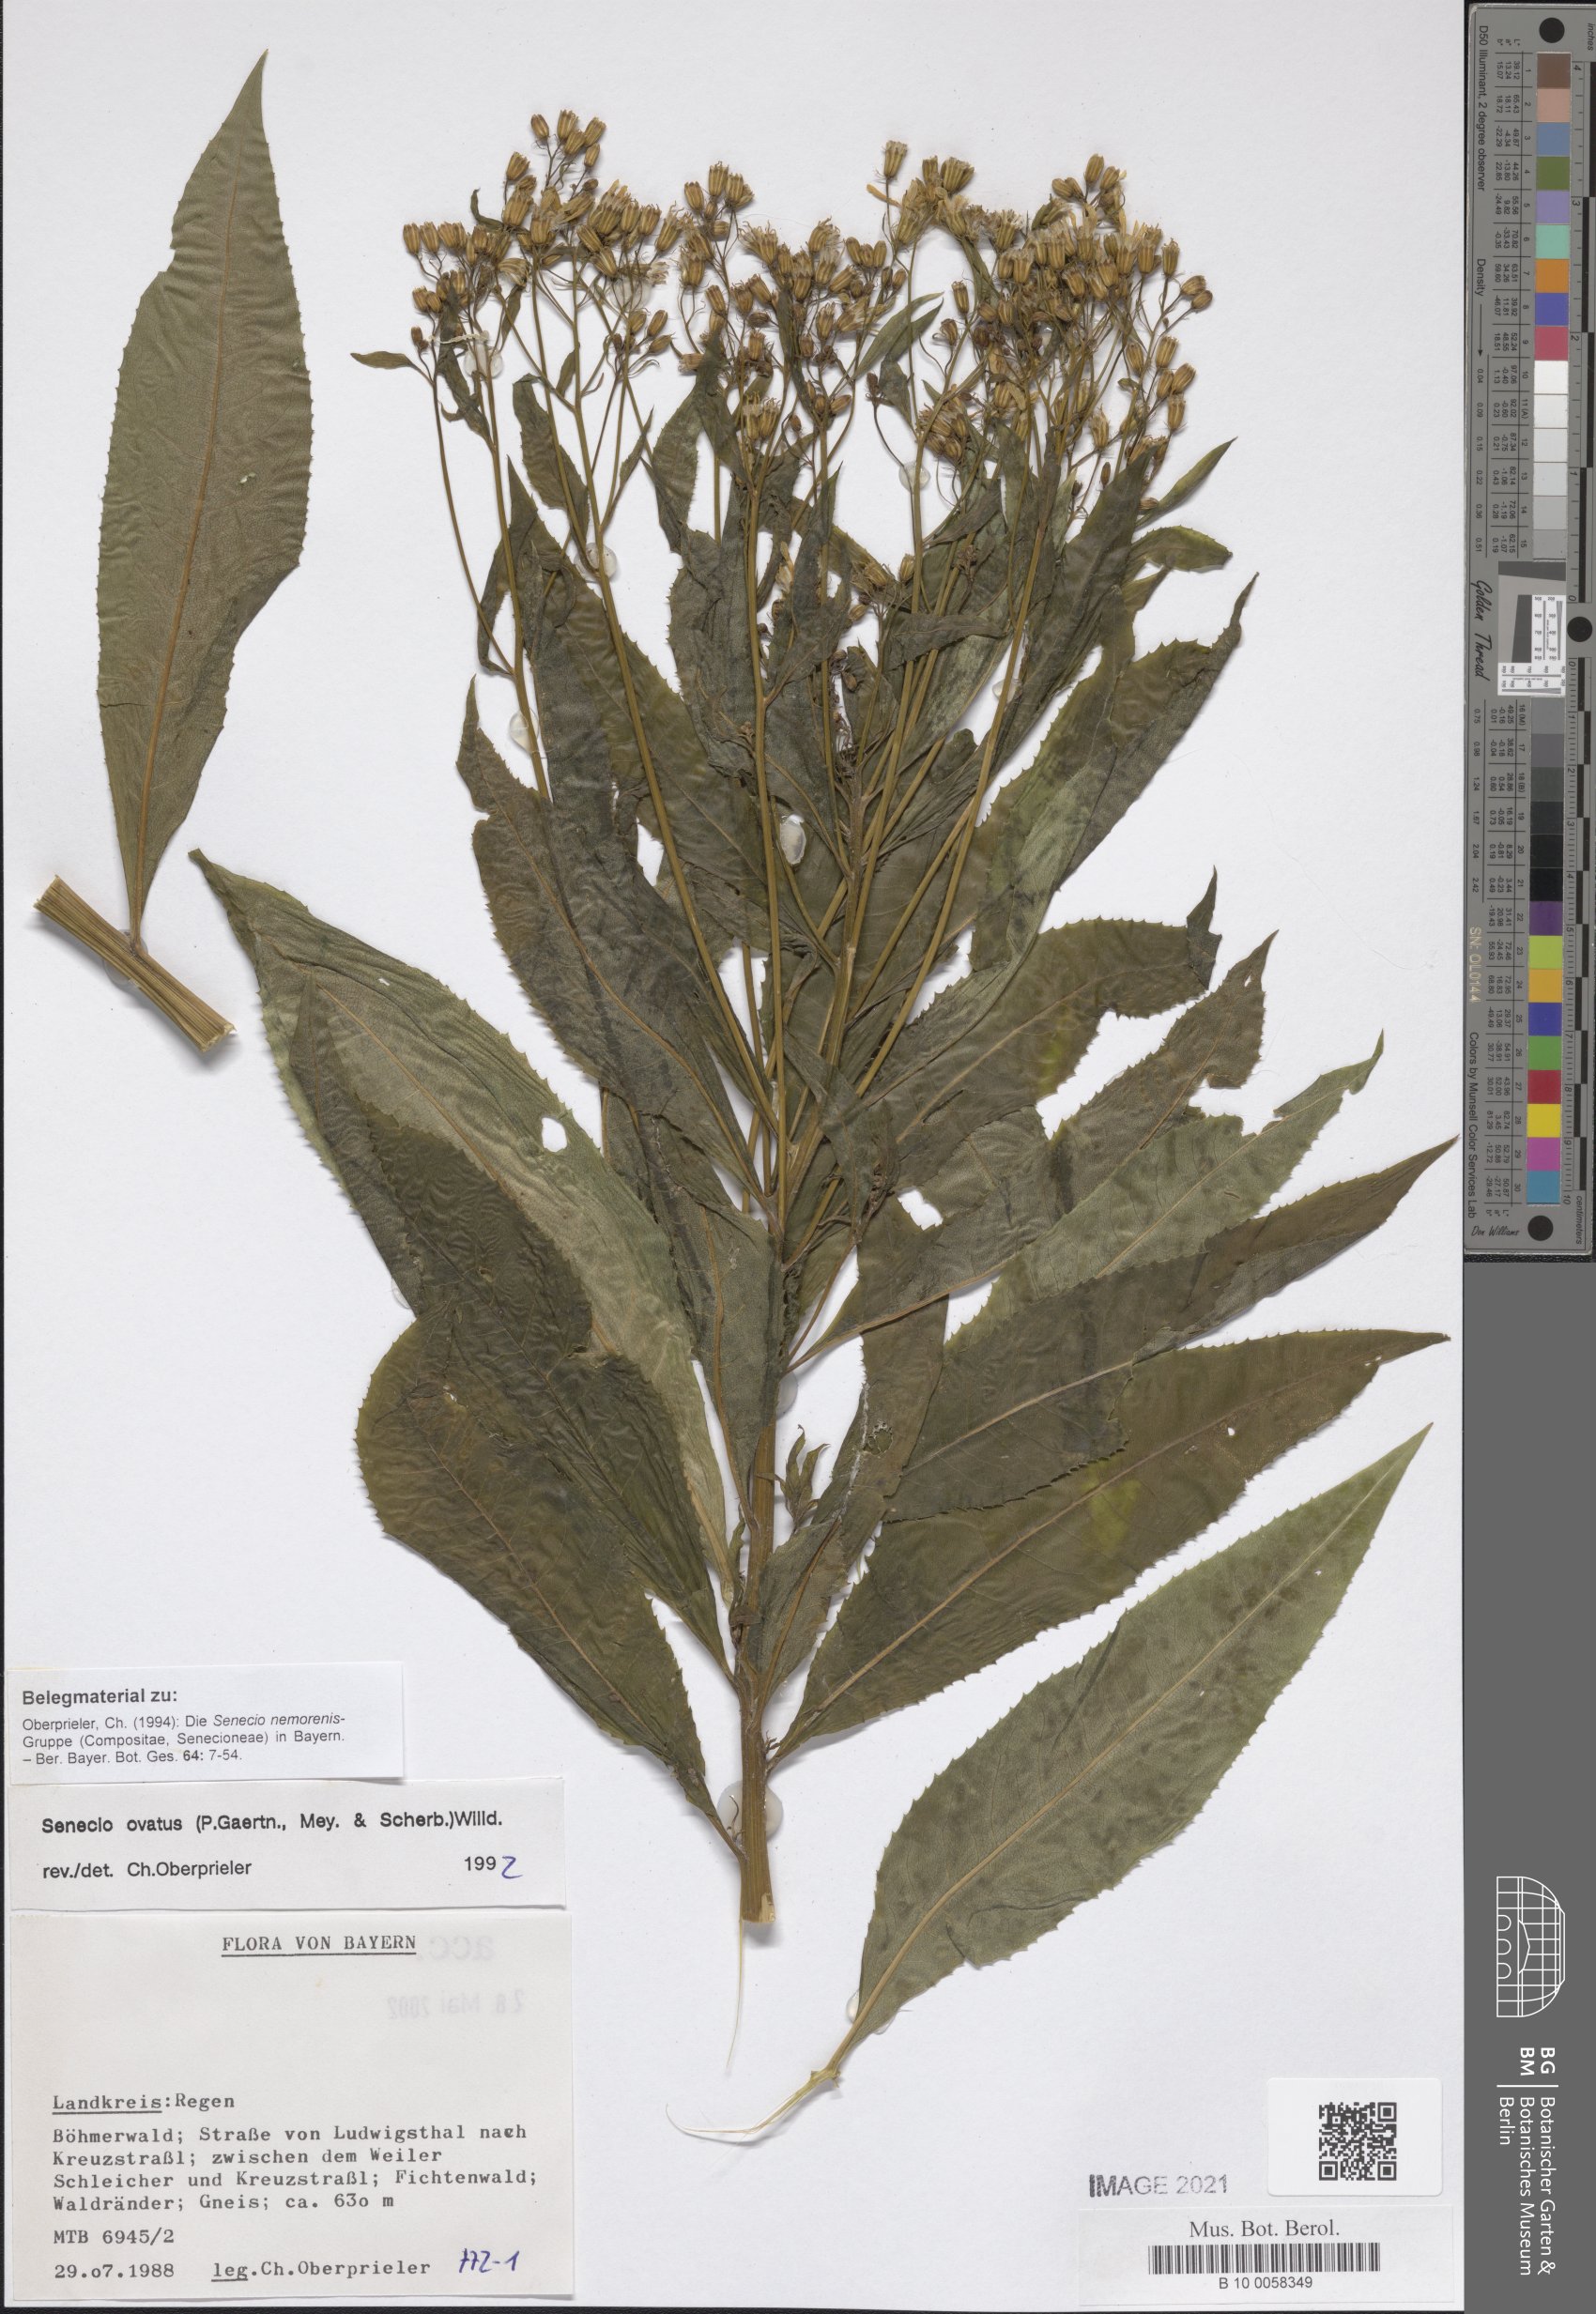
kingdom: Plantae
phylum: Tracheophyta
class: Magnoliopsida
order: Asterales
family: Asteraceae
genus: Senecio
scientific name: Senecio ovatus
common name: Wood ragwort
